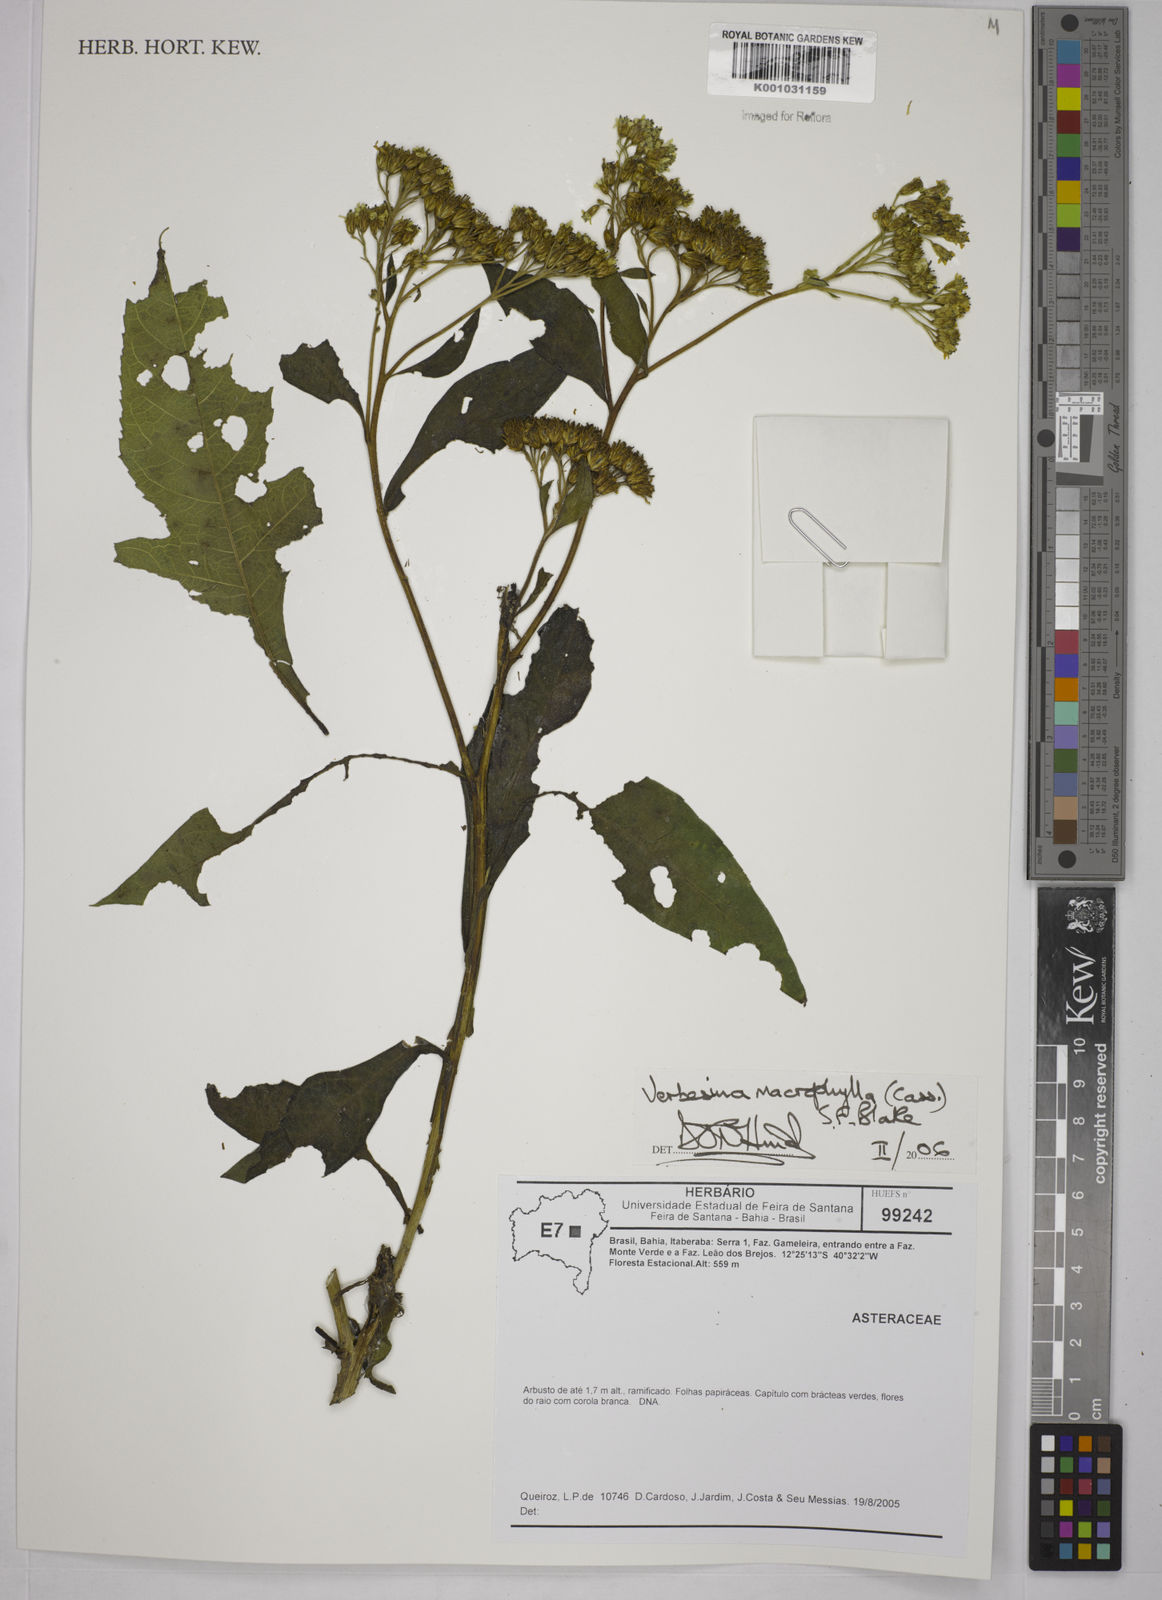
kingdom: Plantae
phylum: Tracheophyta
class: Magnoliopsida
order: Asterales
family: Asteraceae
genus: Verbesina
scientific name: Verbesina macrophylla
